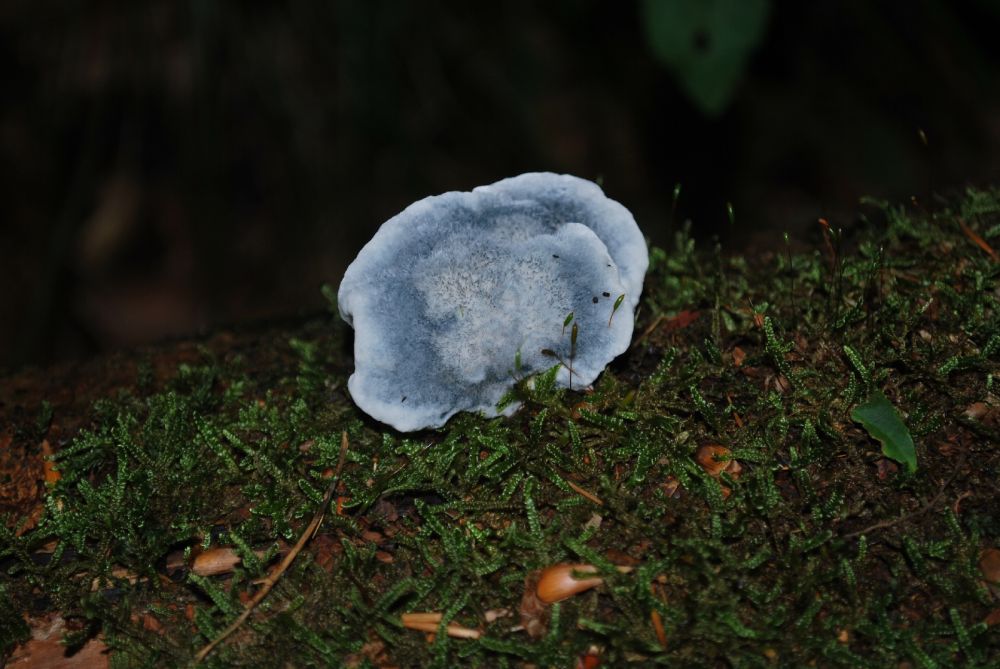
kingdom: Fungi
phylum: Basidiomycota
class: Agaricomycetes
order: Polyporales
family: Polyporaceae
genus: Cyanosporus
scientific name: Cyanosporus caesius
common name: blålig kødporesvamp
